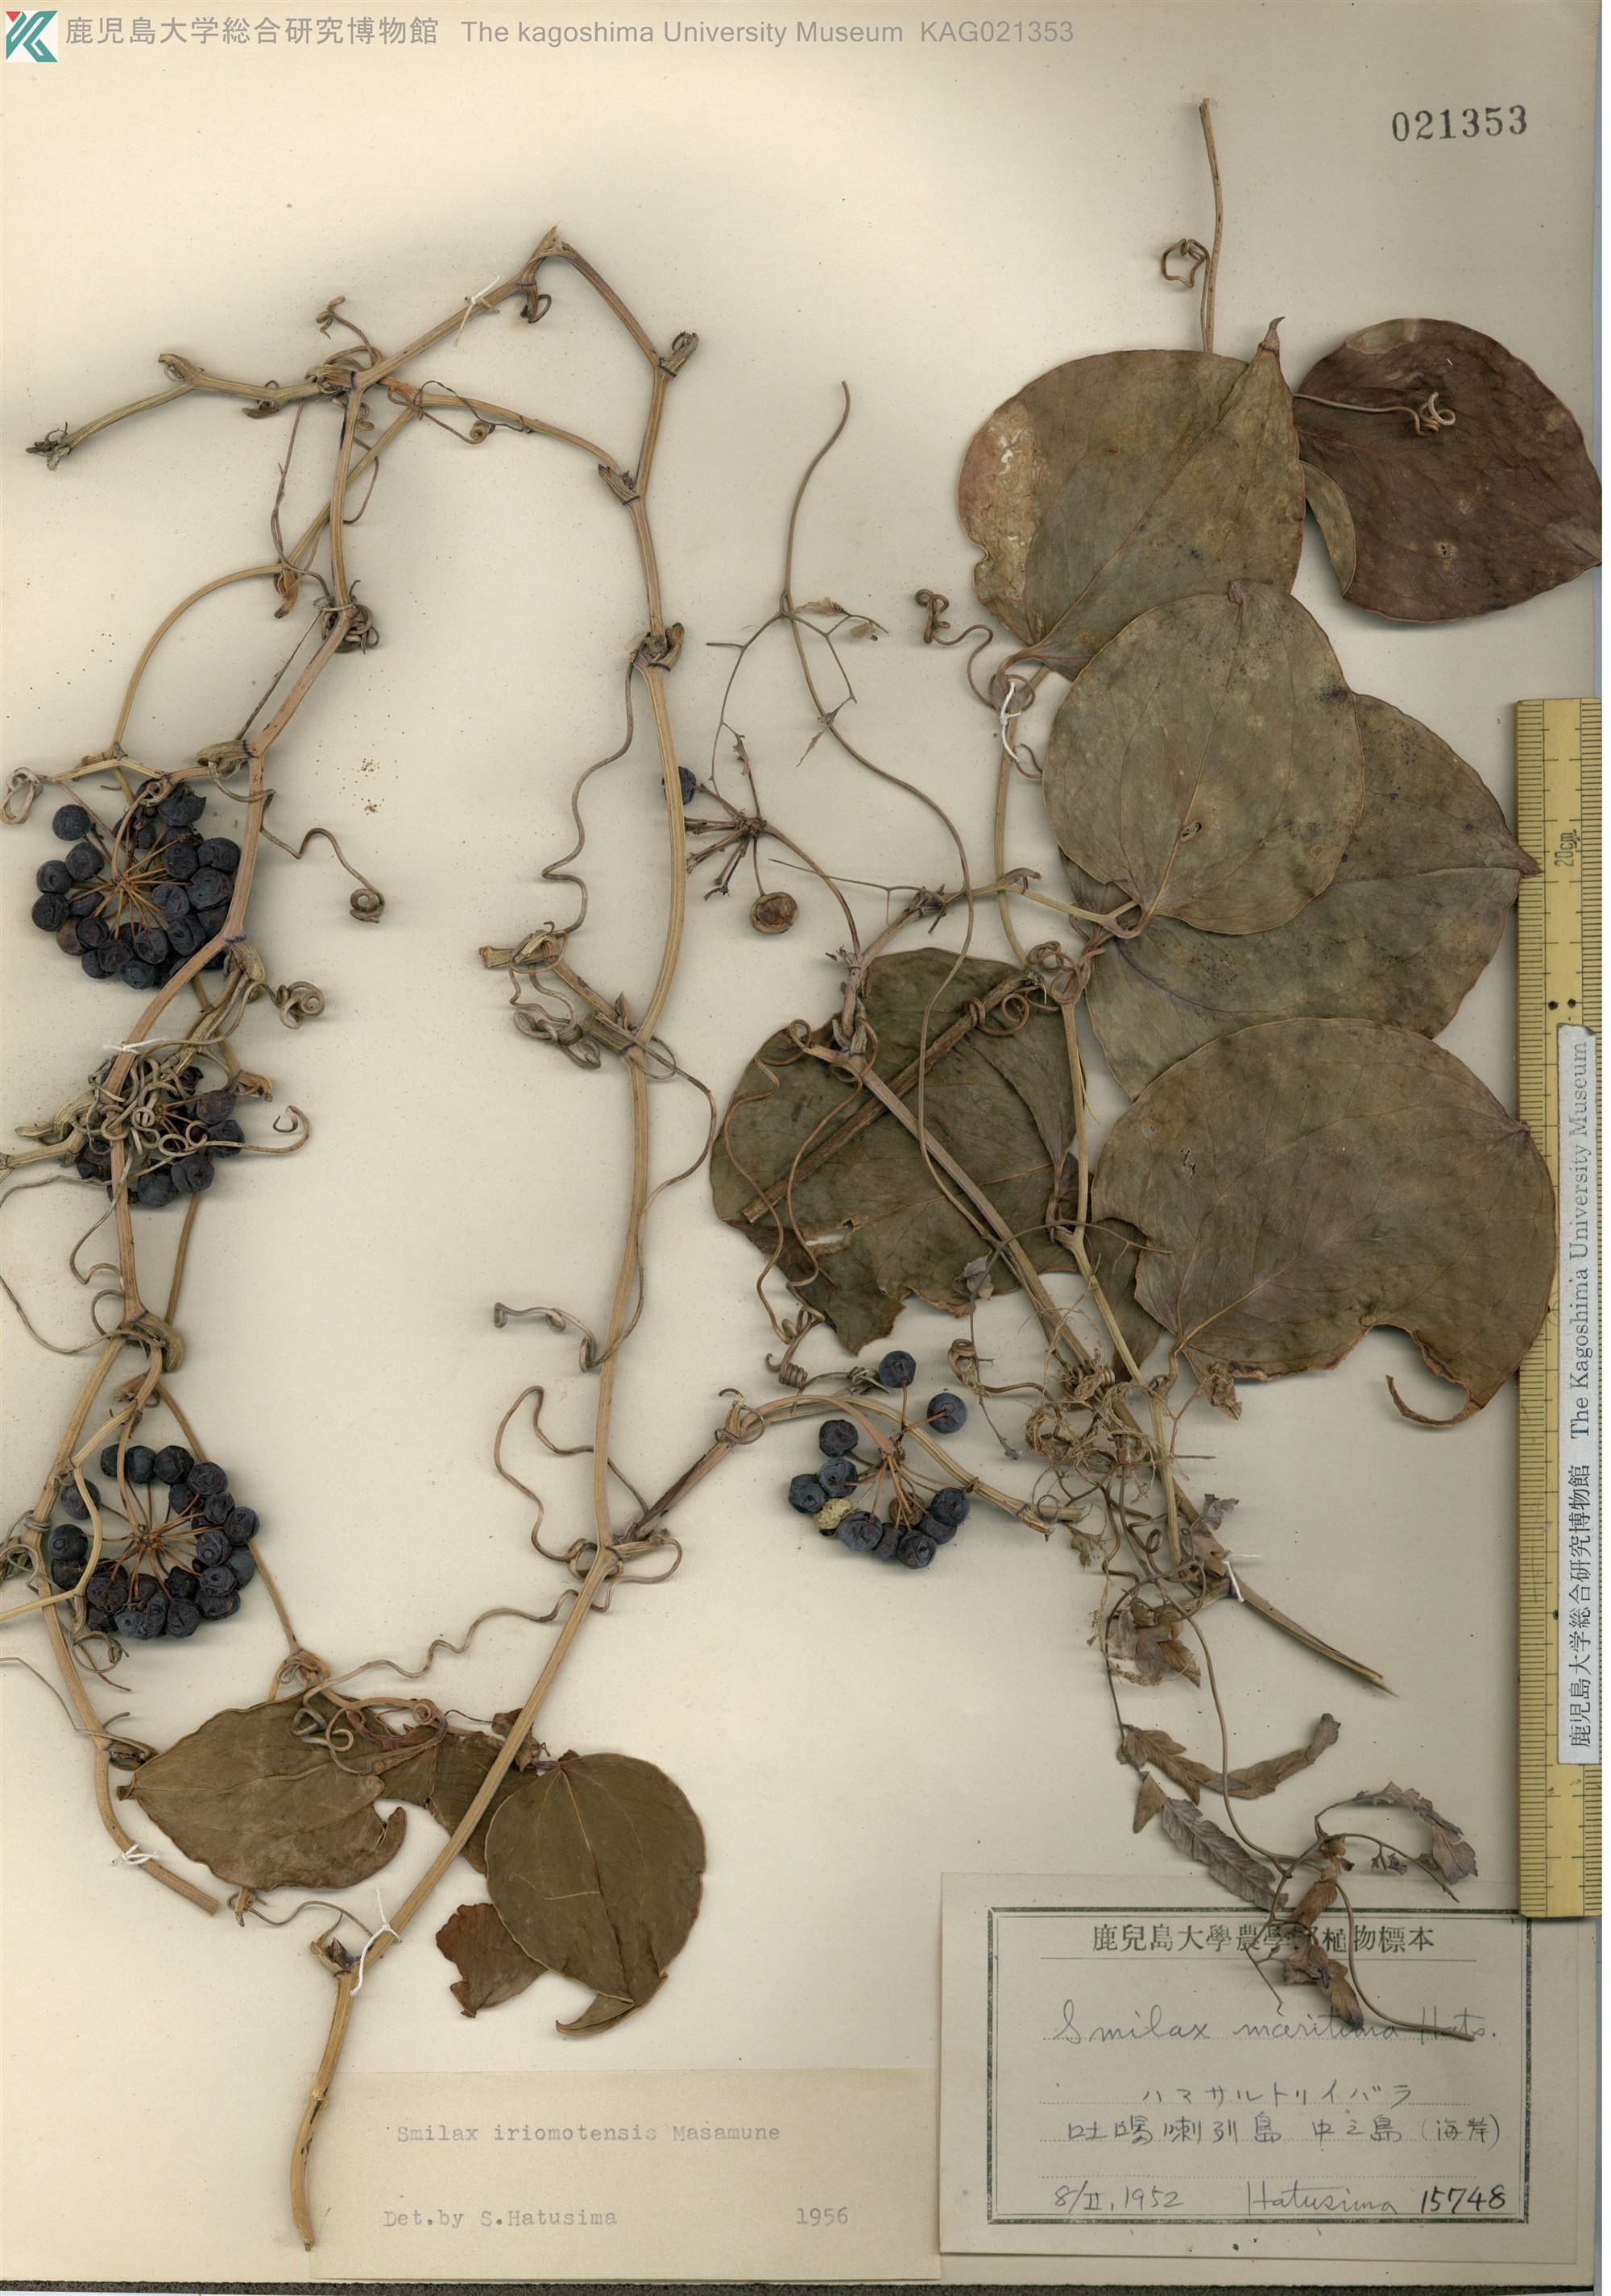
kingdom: Plantae
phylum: Tracheophyta
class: Liliopsida
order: Liliales
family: Smilacaceae
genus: Smilax
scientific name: Smilax sebeana
